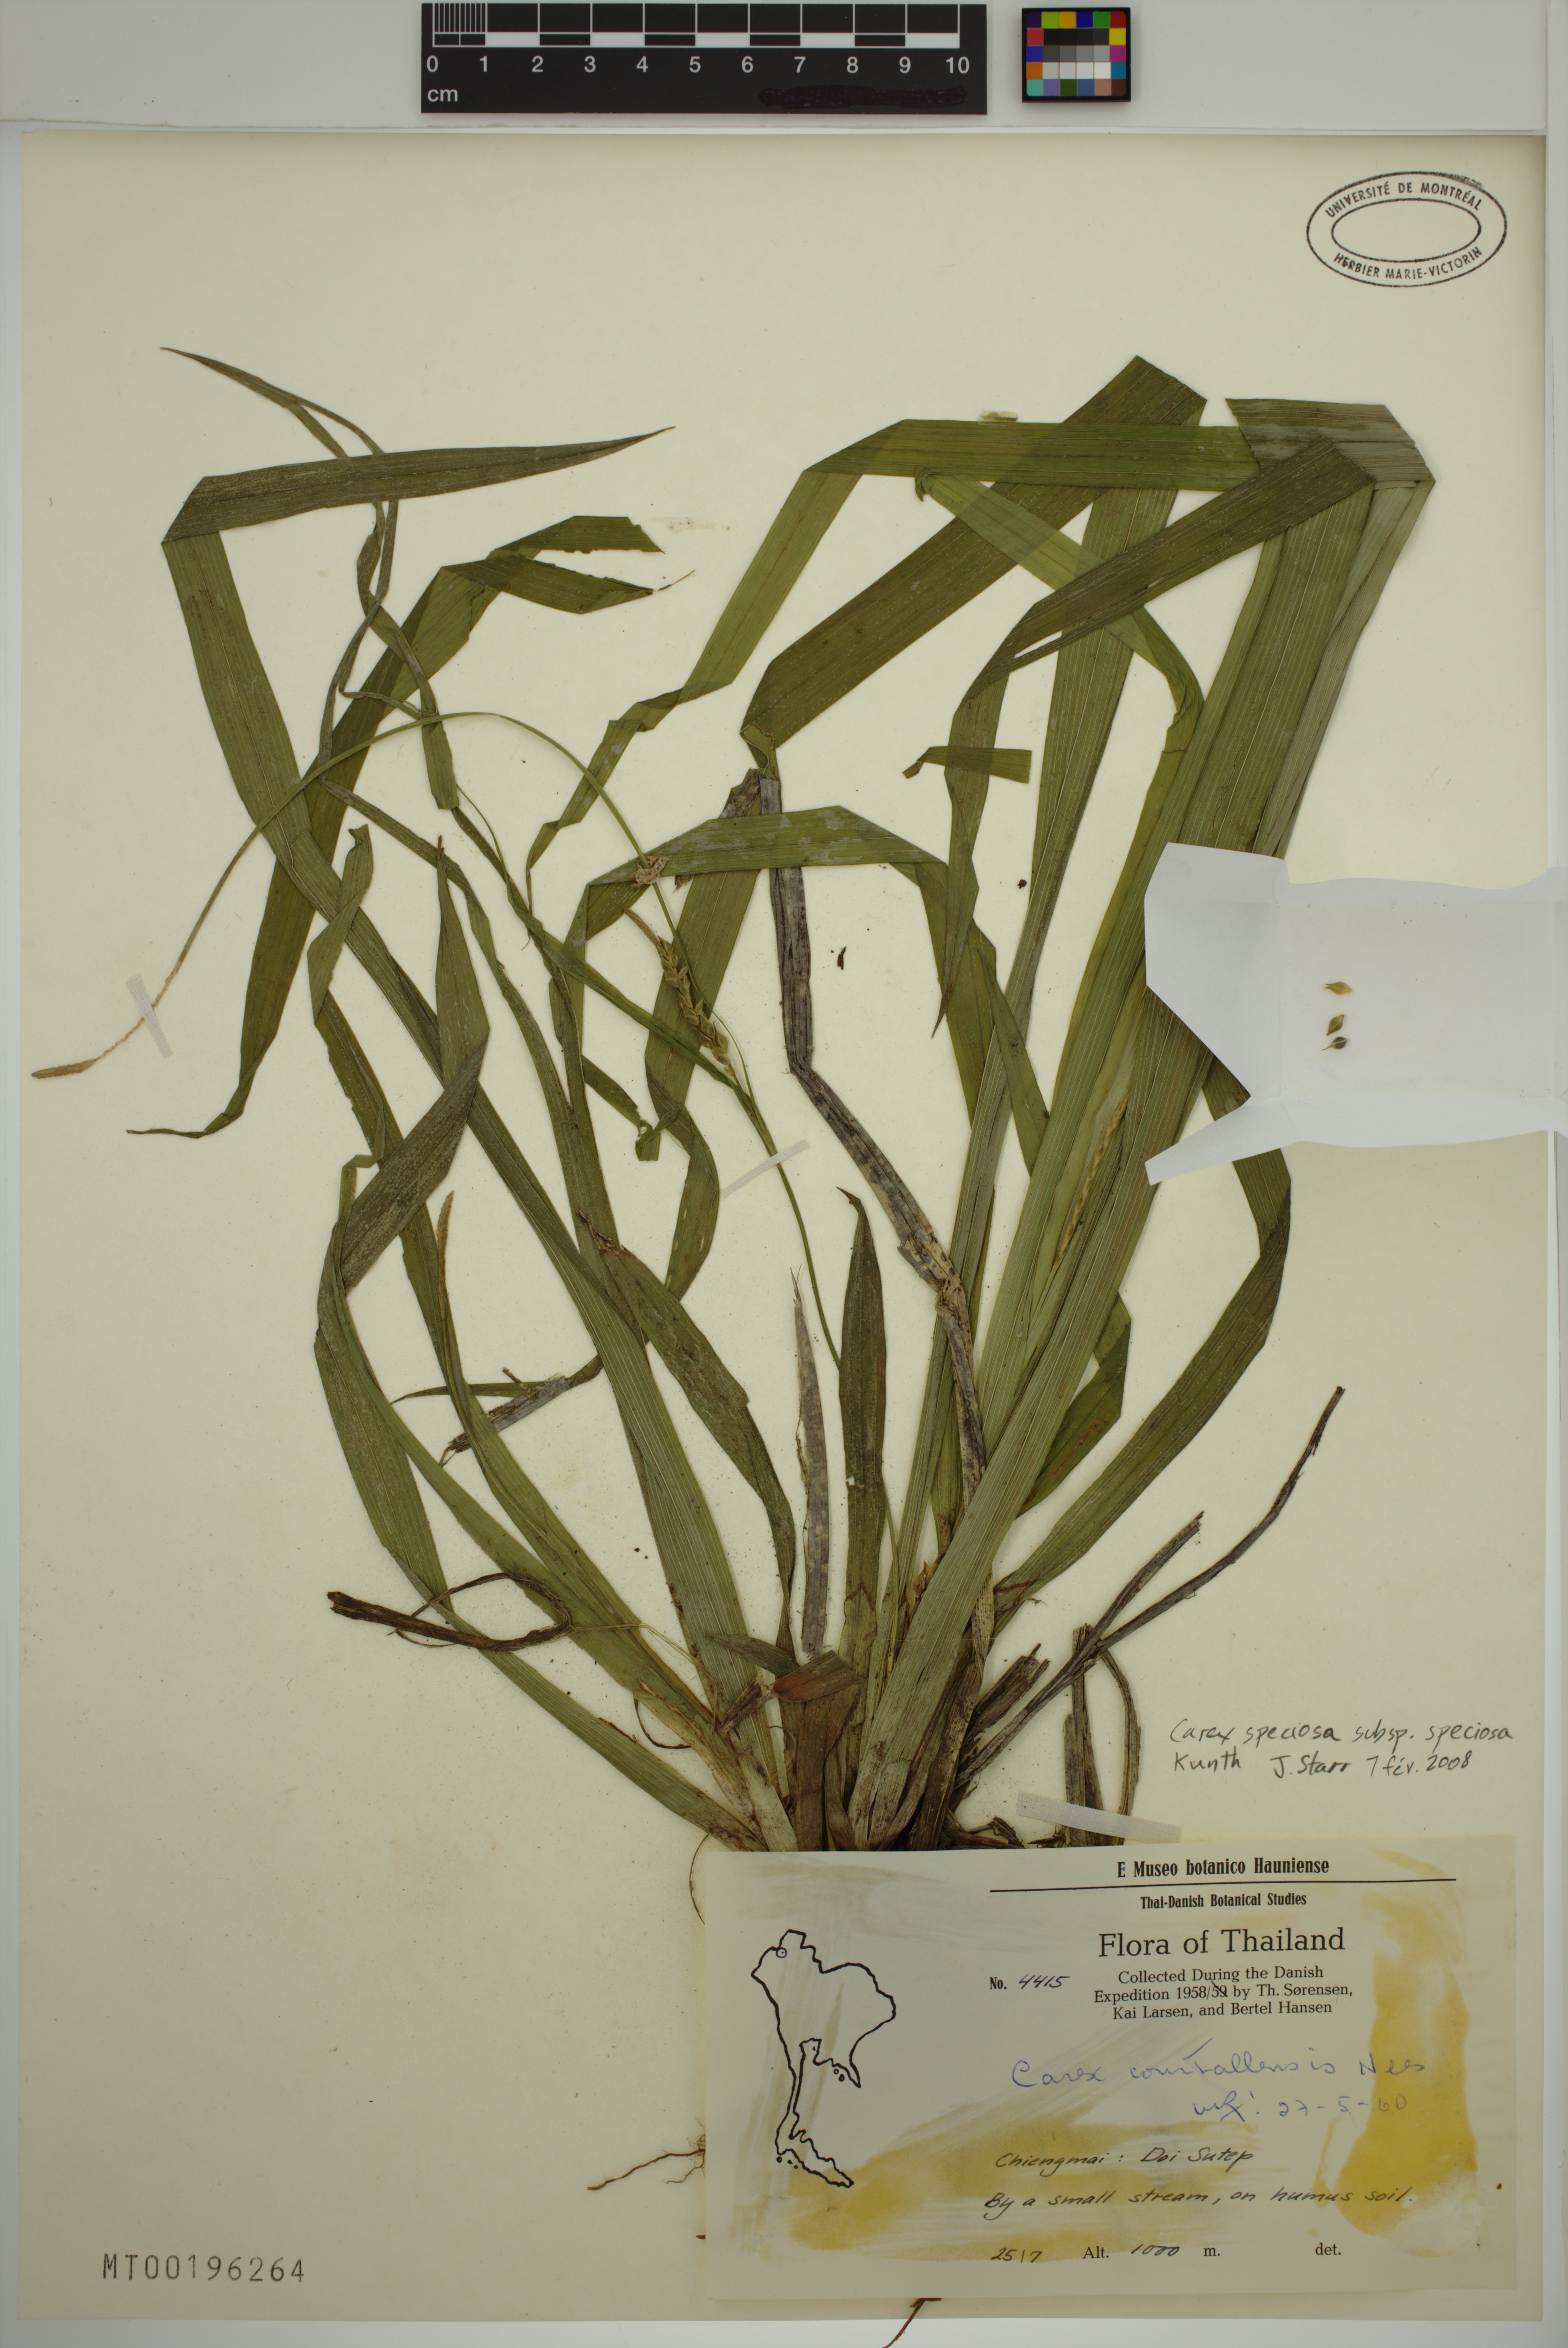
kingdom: Plantae
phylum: Tracheophyta
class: Liliopsida
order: Poales
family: Cyperaceae
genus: Carex
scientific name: Carex speciosa
